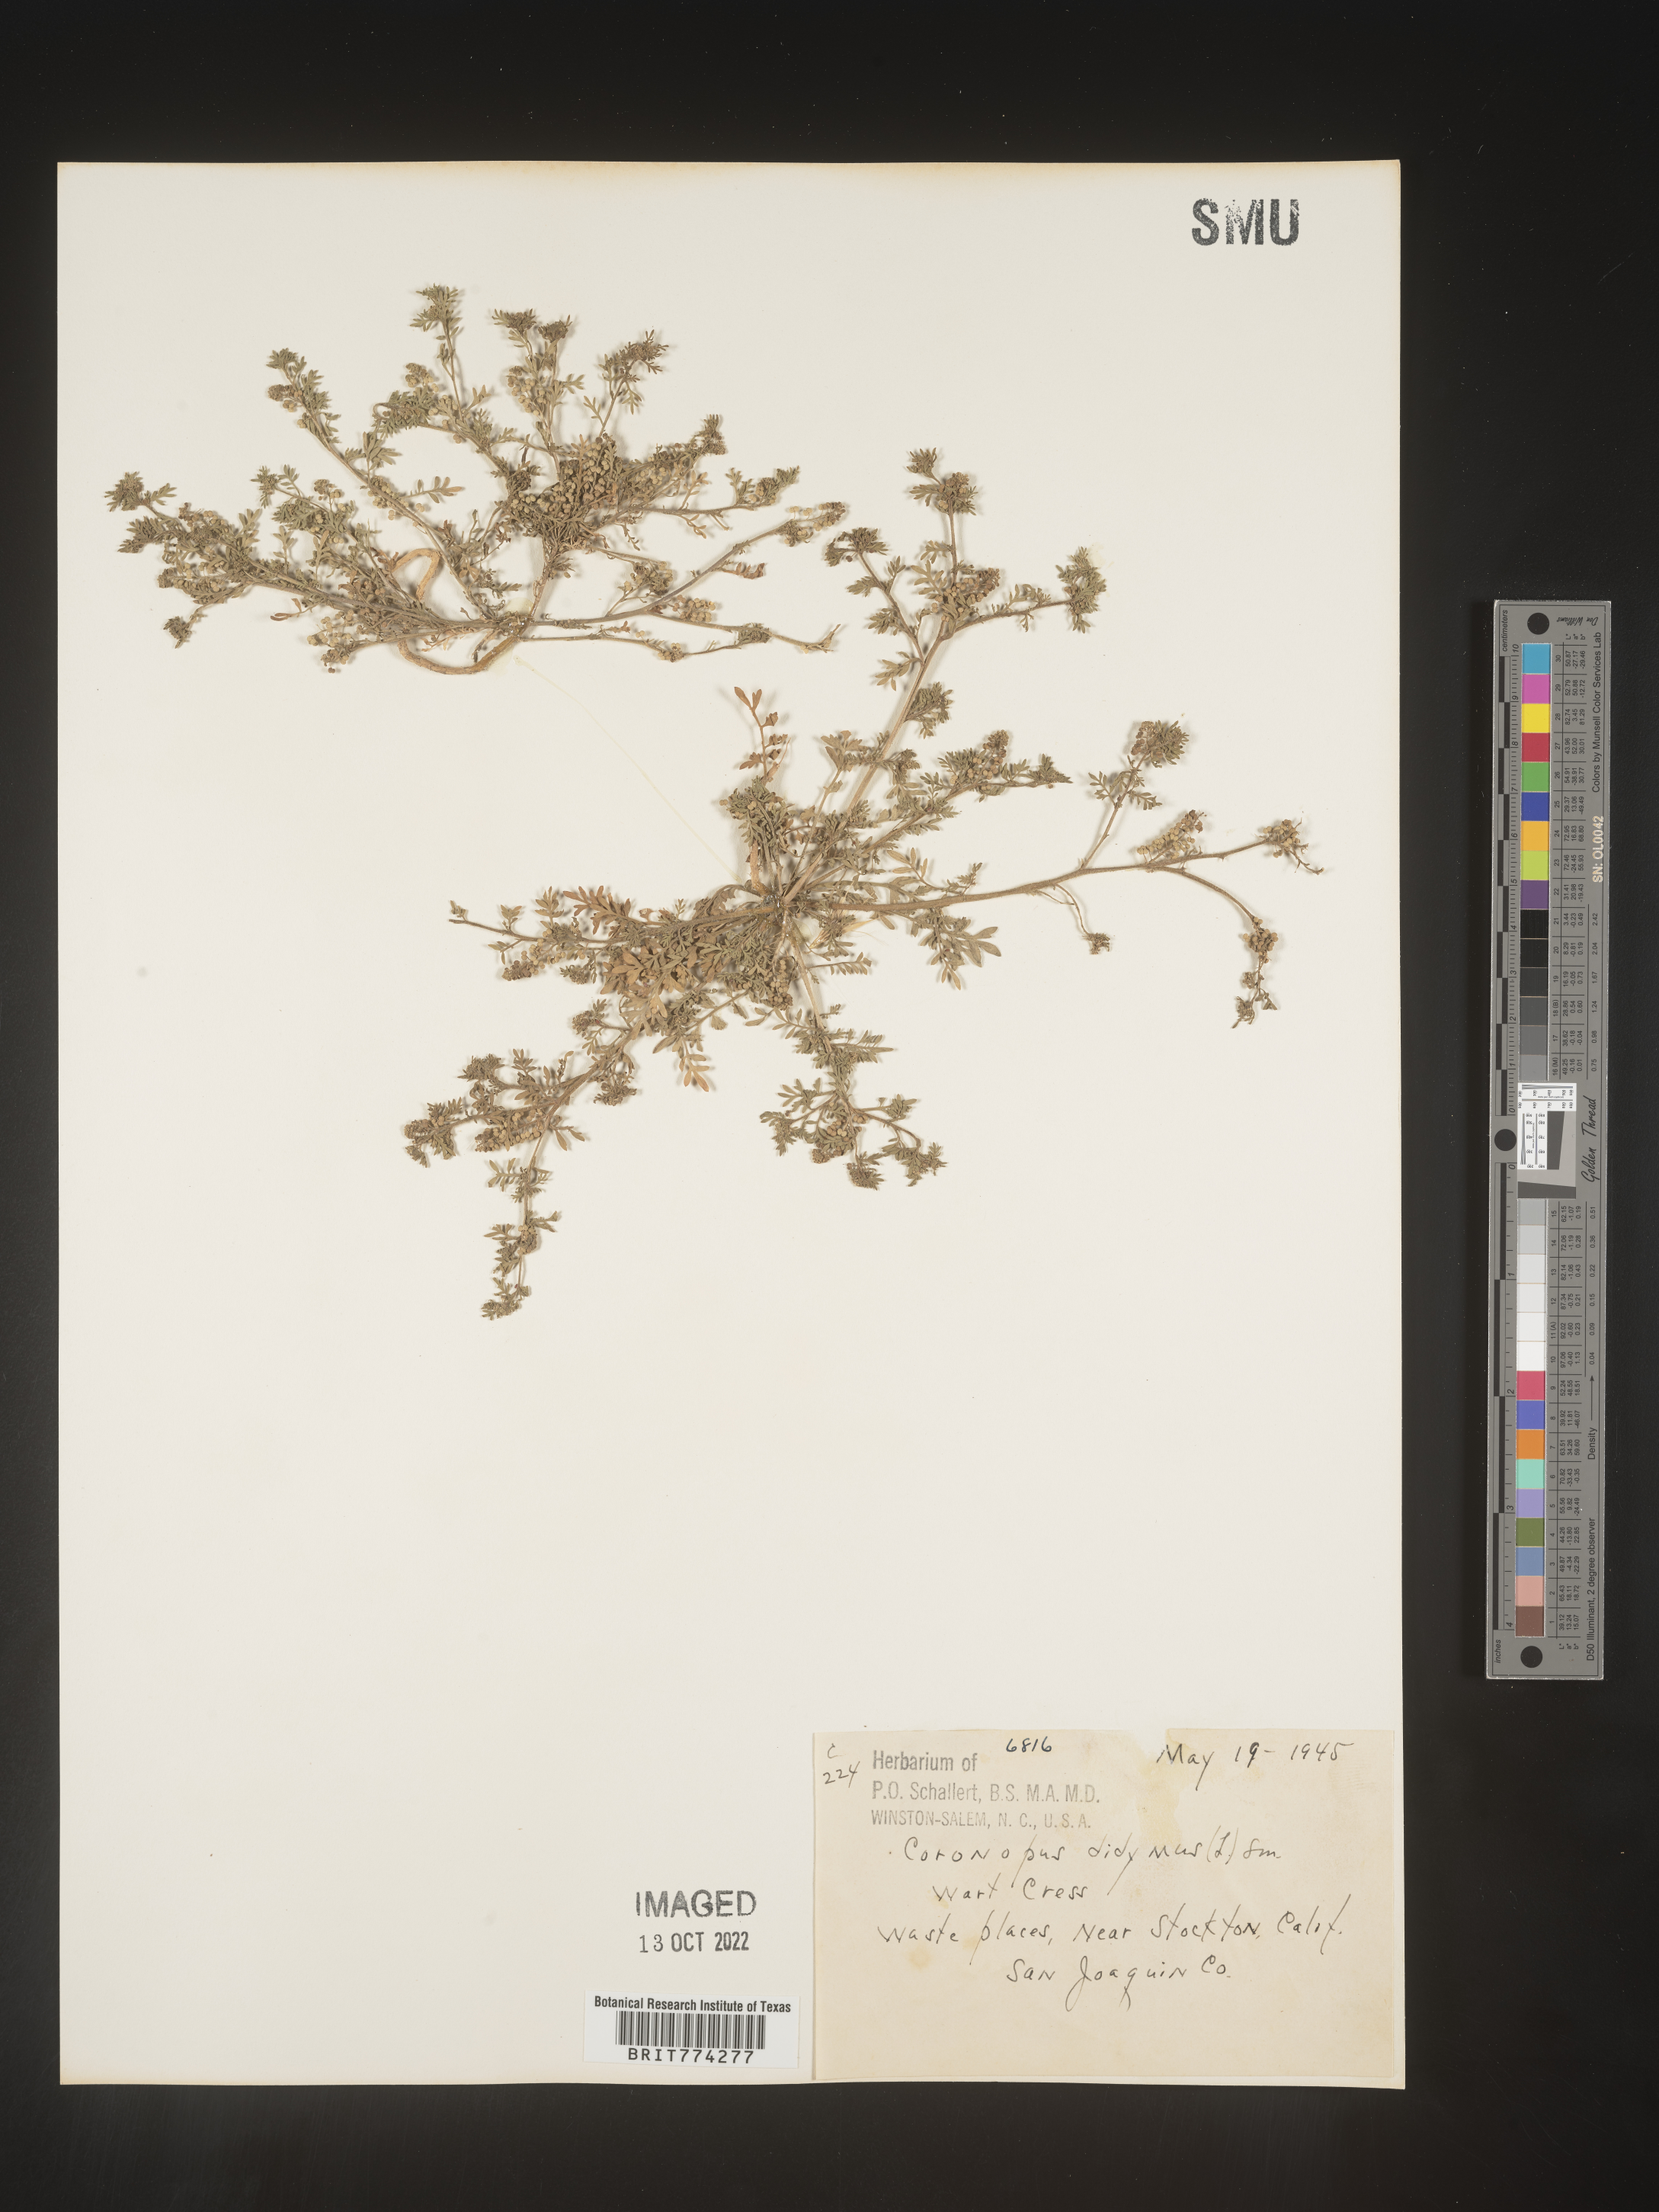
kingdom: Plantae
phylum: Tracheophyta
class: Magnoliopsida
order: Brassicales
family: Brassicaceae
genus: Coronopus
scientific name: Coronopus
